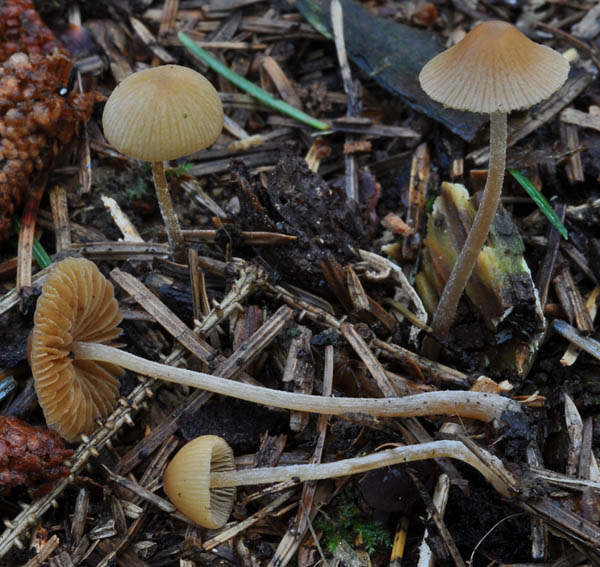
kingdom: Fungi
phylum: Basidiomycota
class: Agaricomycetes
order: Agaricales
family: Bolbitiaceae
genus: Conocybe
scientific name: Conocybe filipes
